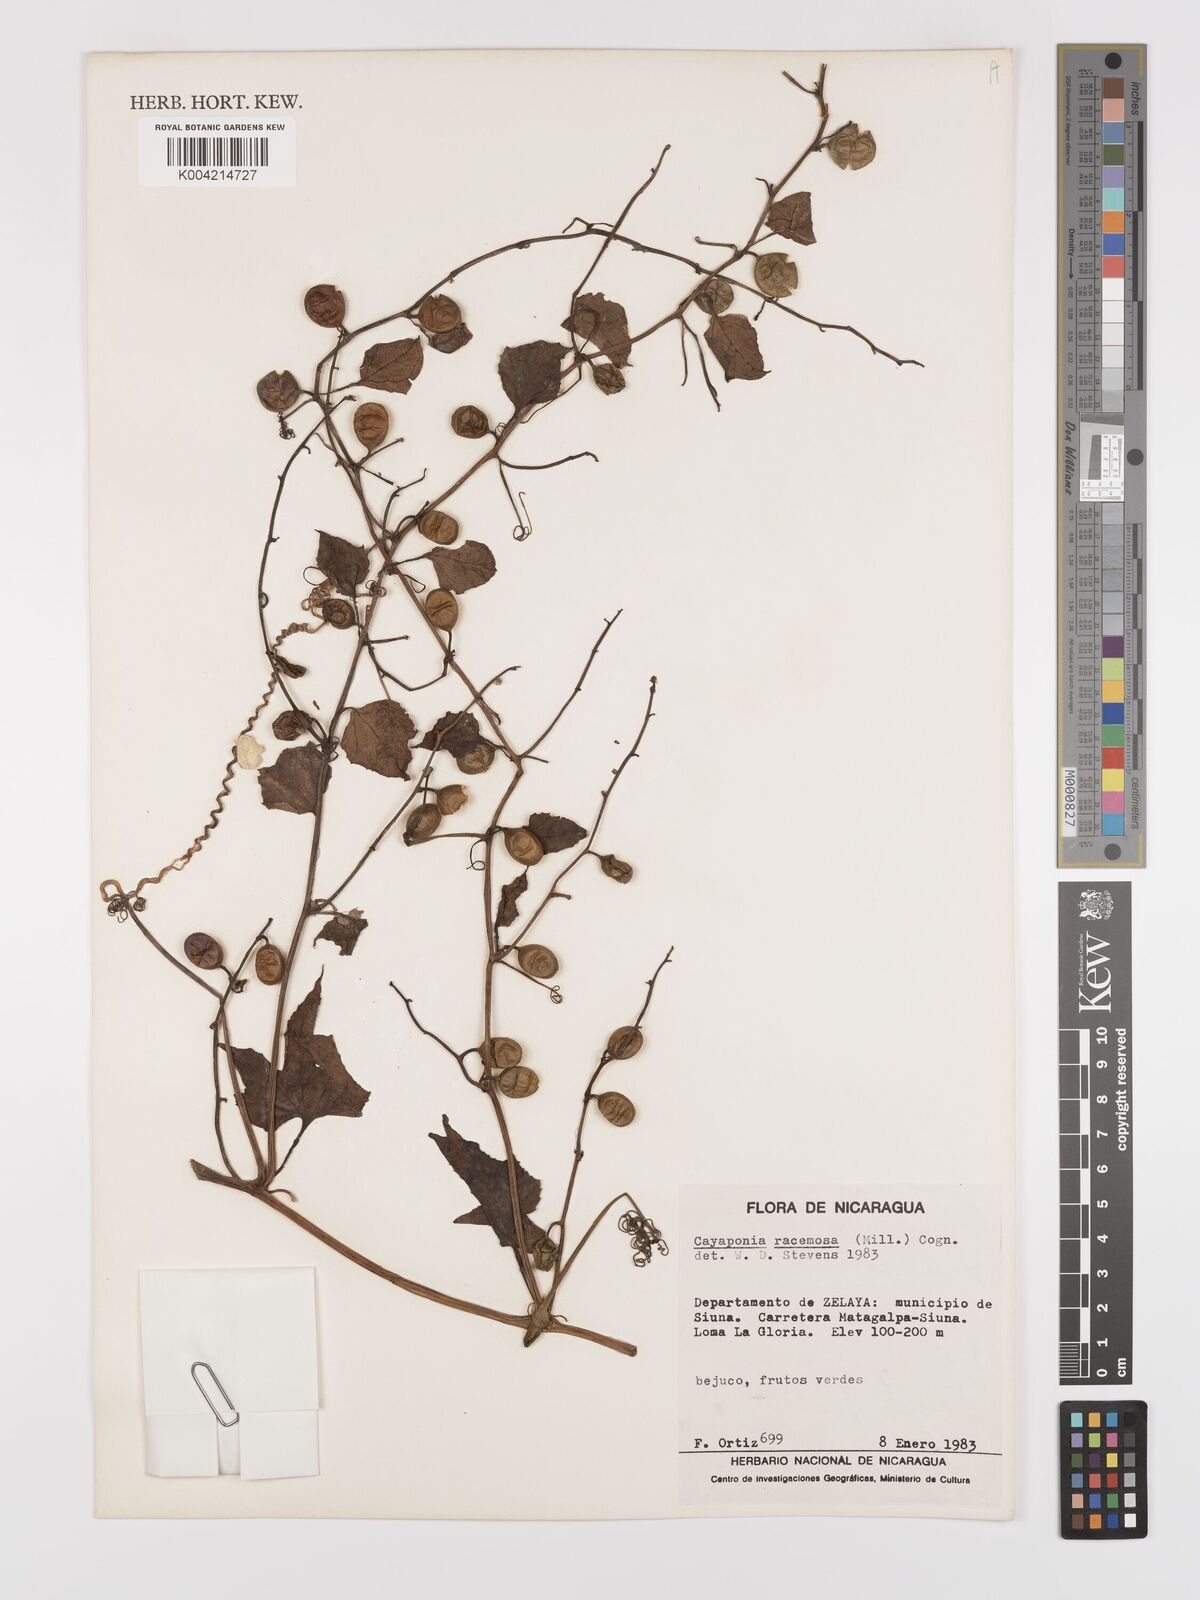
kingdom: Plantae
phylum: Tracheophyta
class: Magnoliopsida
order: Cucurbitales
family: Cucurbitaceae
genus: Cayaponia
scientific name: Cayaponia racemosa
